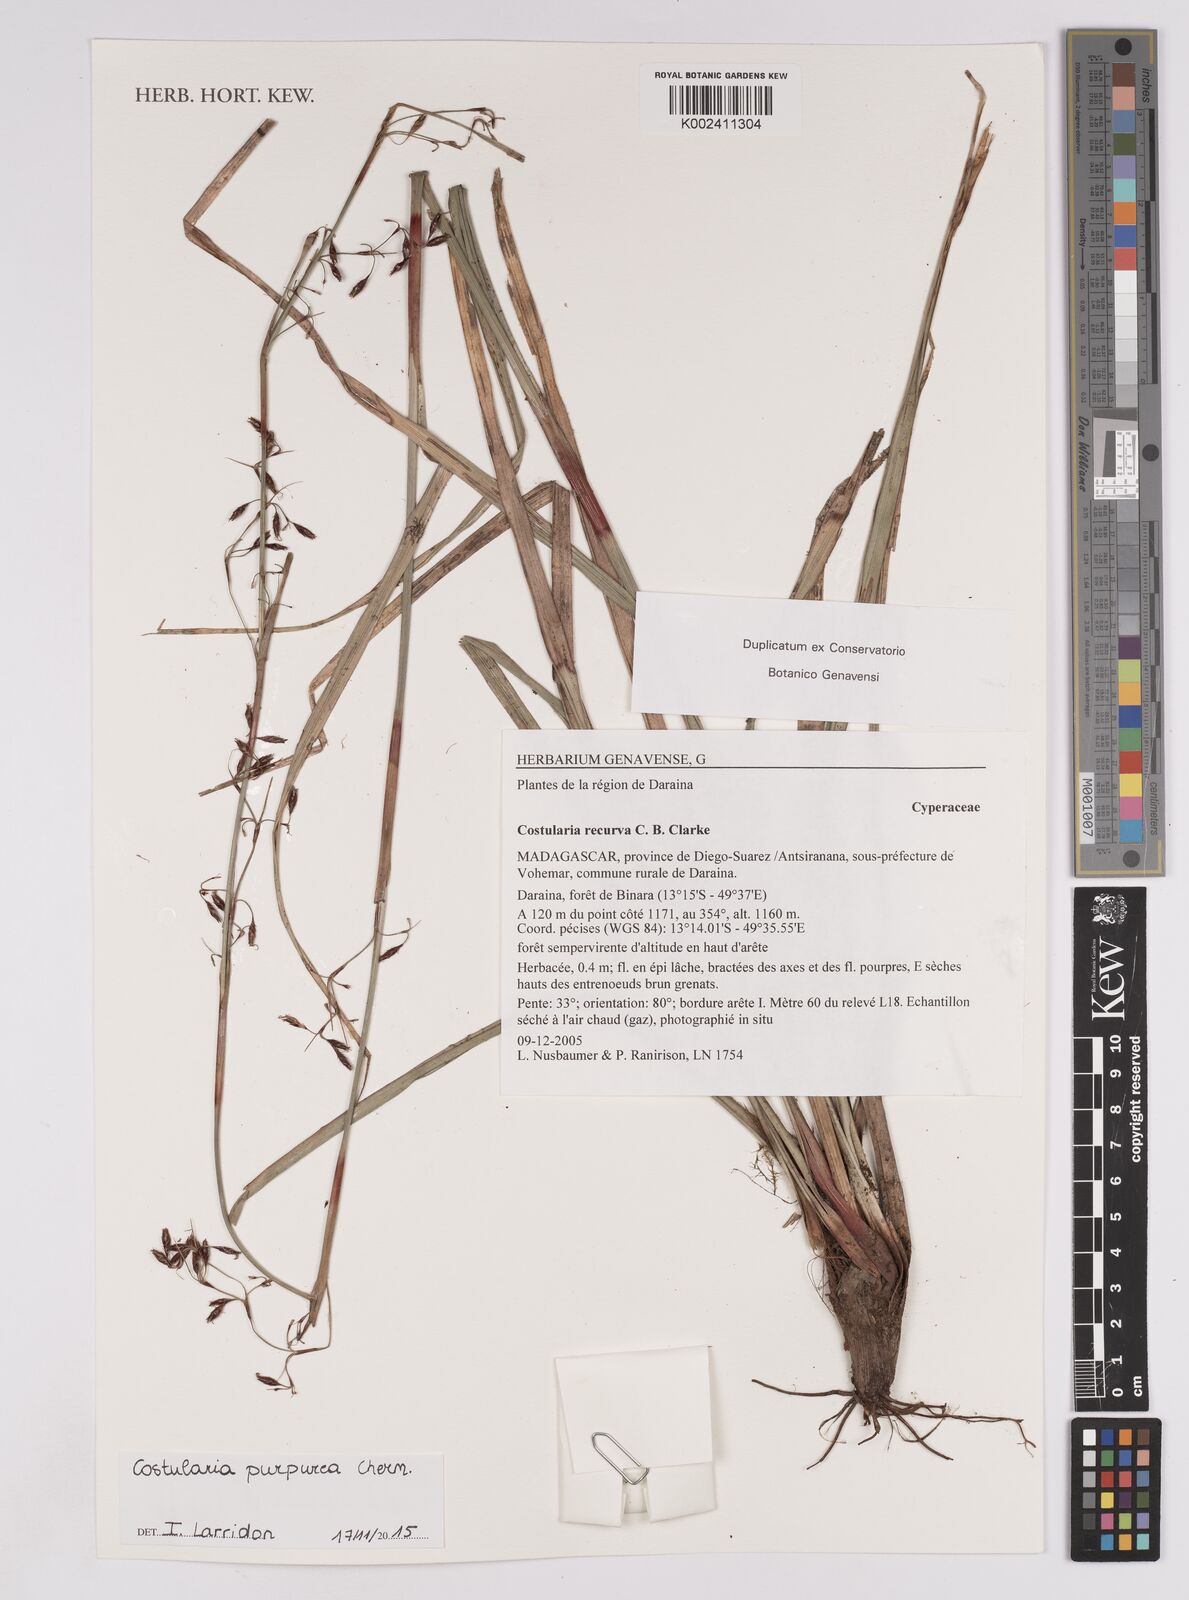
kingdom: Plantae
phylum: Tracheophyta
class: Liliopsida
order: Poales
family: Cyperaceae
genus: Costularia
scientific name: Costularia purpurea
